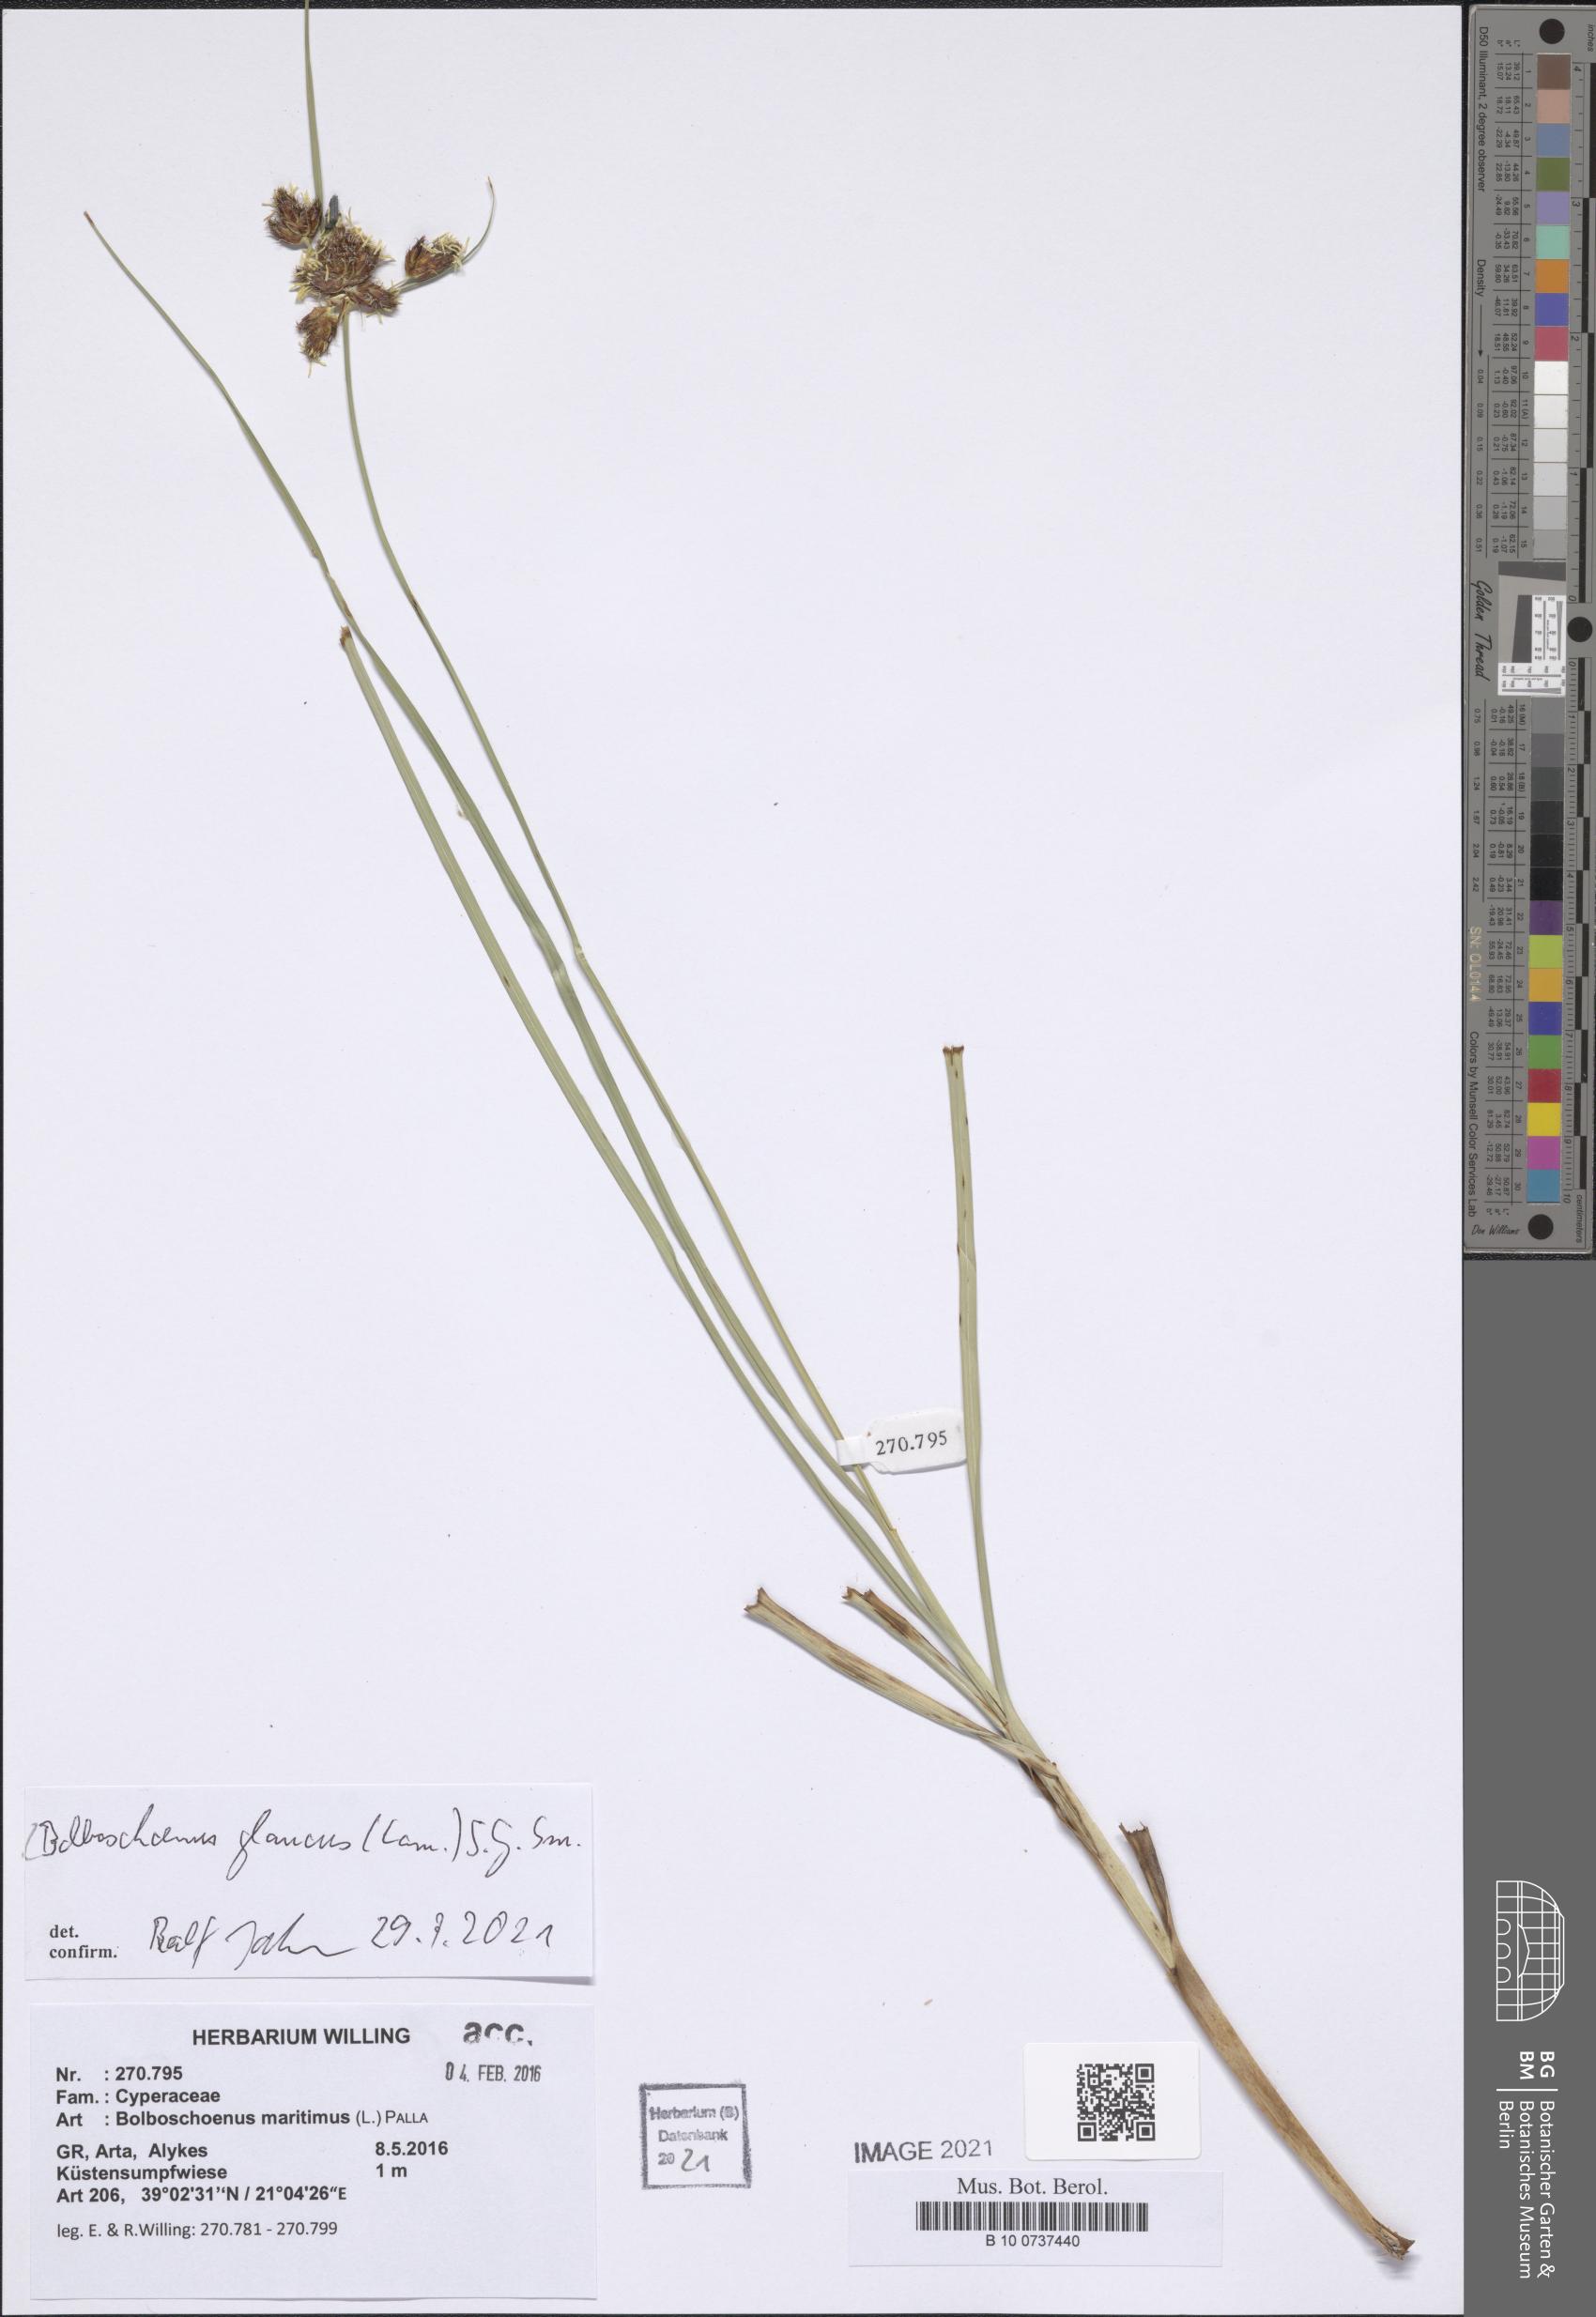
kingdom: Plantae
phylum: Tracheophyta
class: Liliopsida
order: Poales
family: Cyperaceae
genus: Bolboschoenus
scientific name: Bolboschoenus glaucus
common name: Tuberous bulrush
